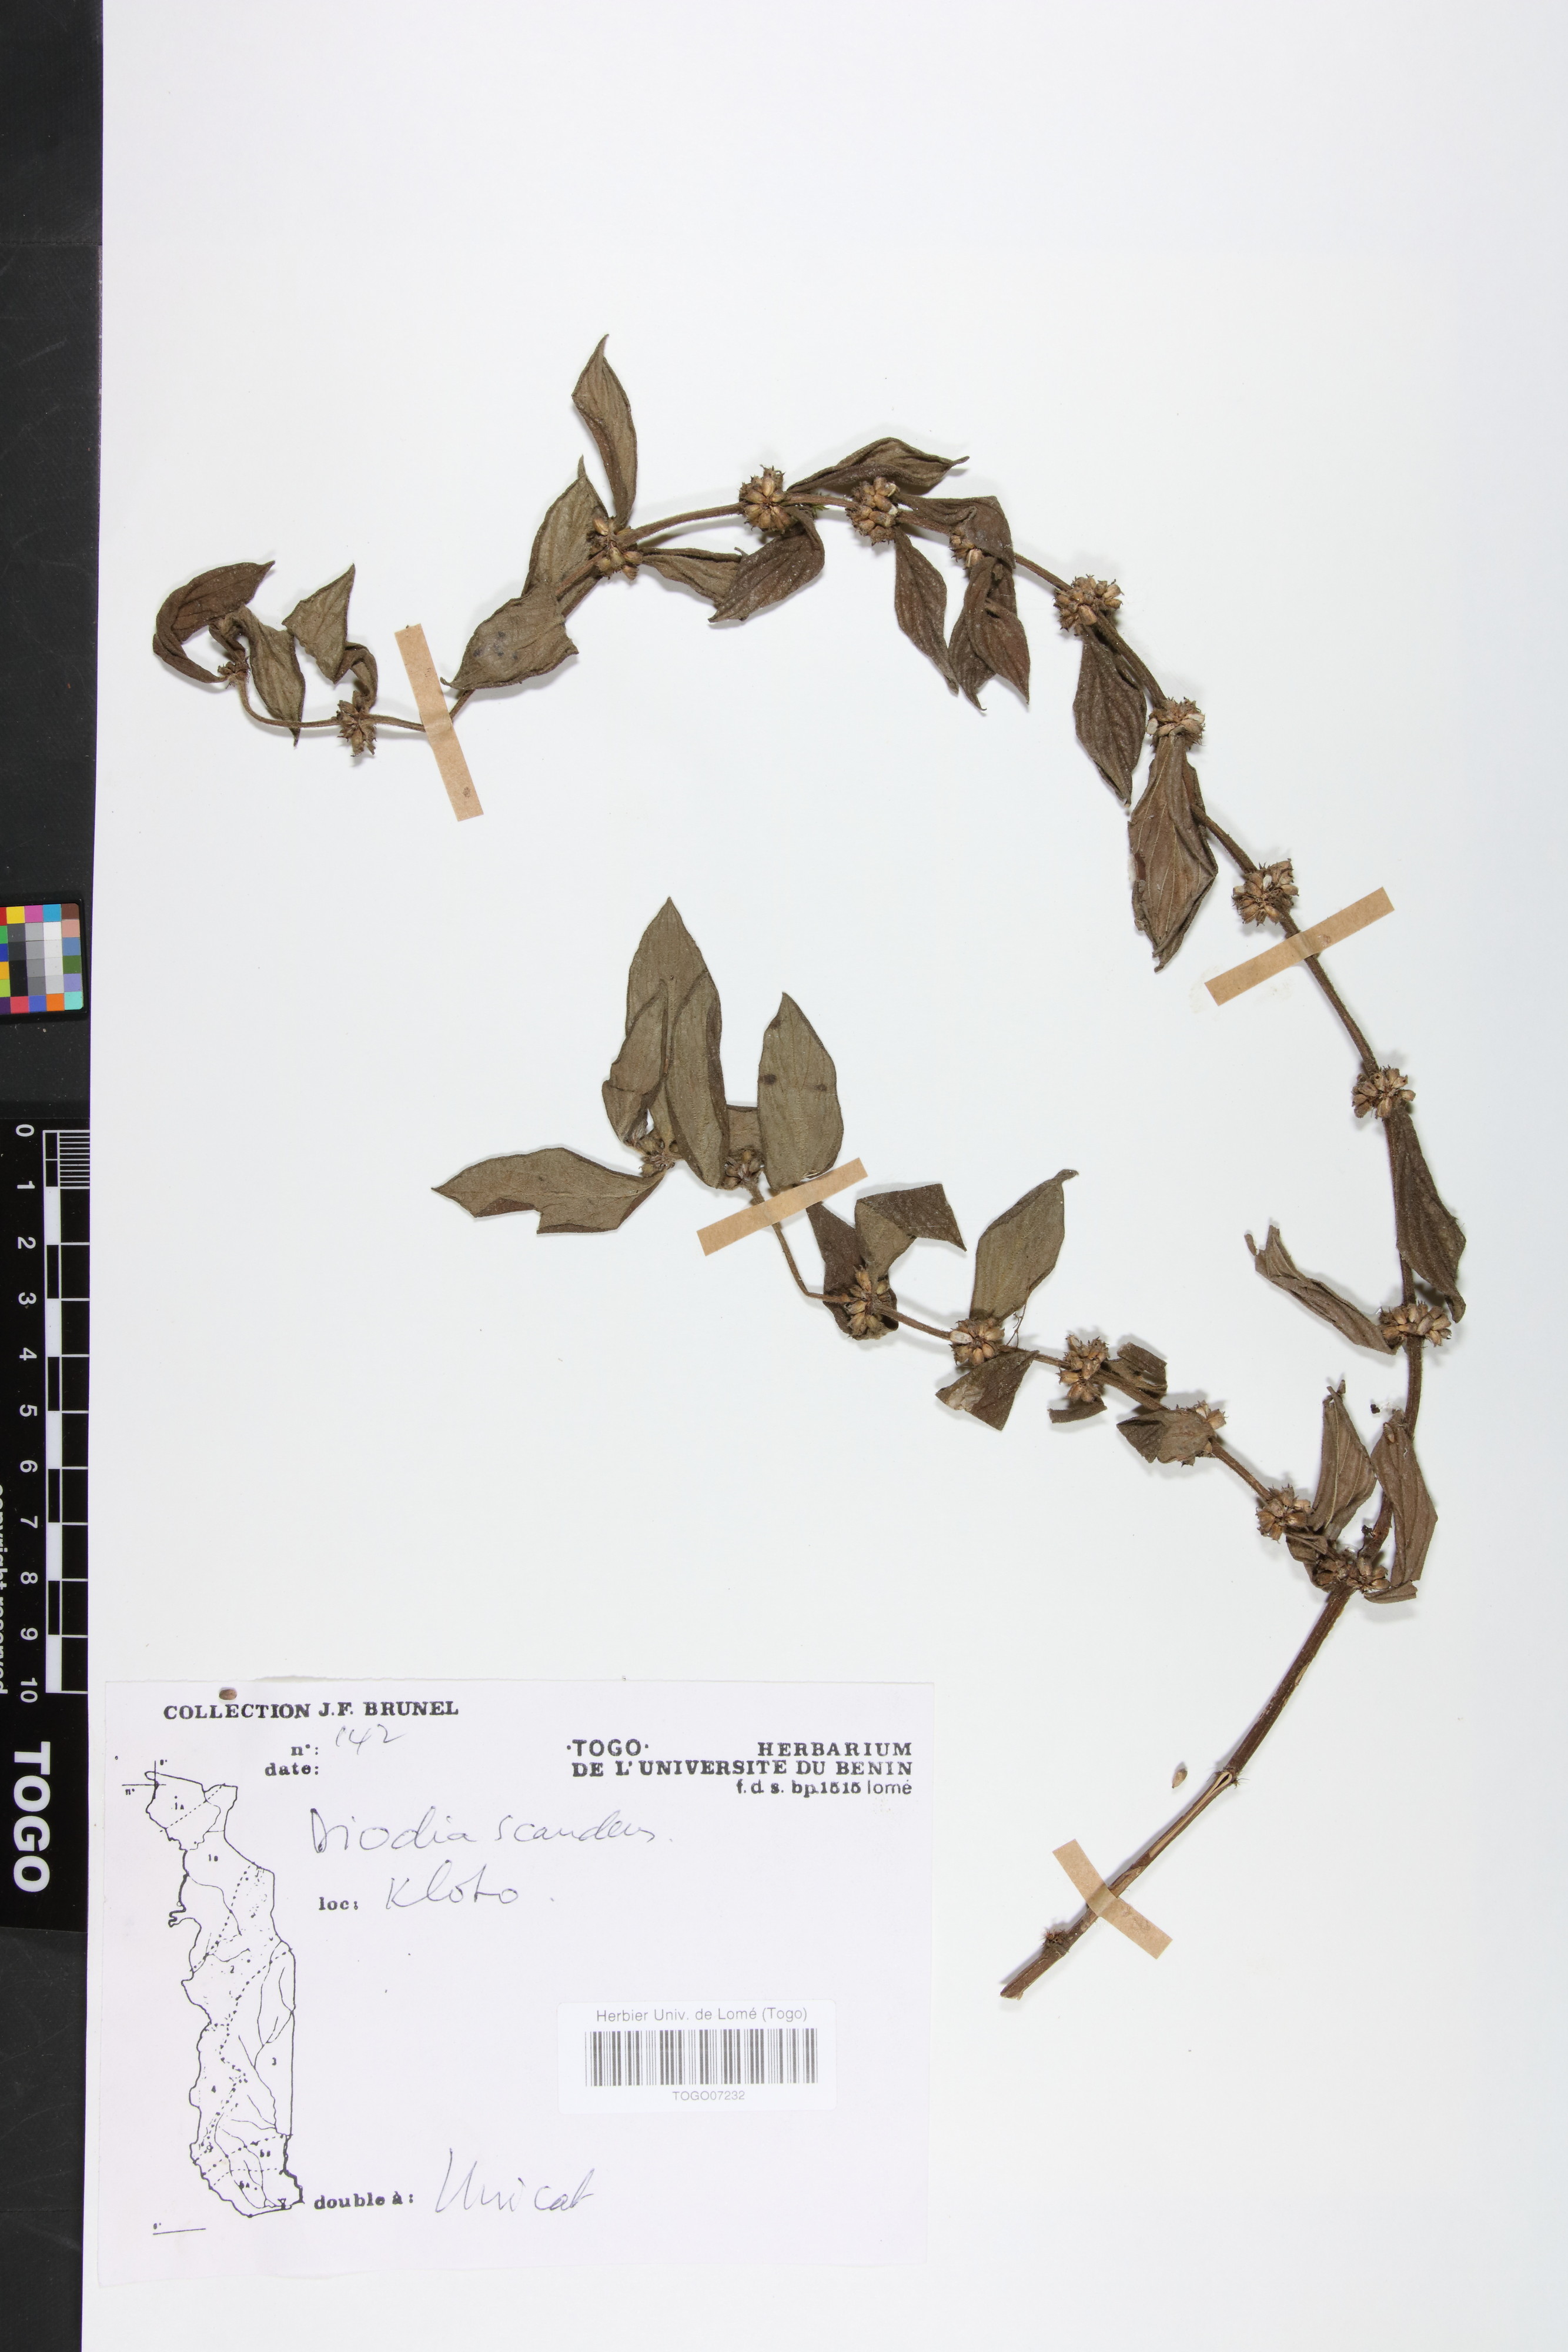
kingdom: Plantae
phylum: Tracheophyta
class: Magnoliopsida
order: Gentianales
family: Rubiaceae
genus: Hexasepalum
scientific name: Hexasepalum scandens
